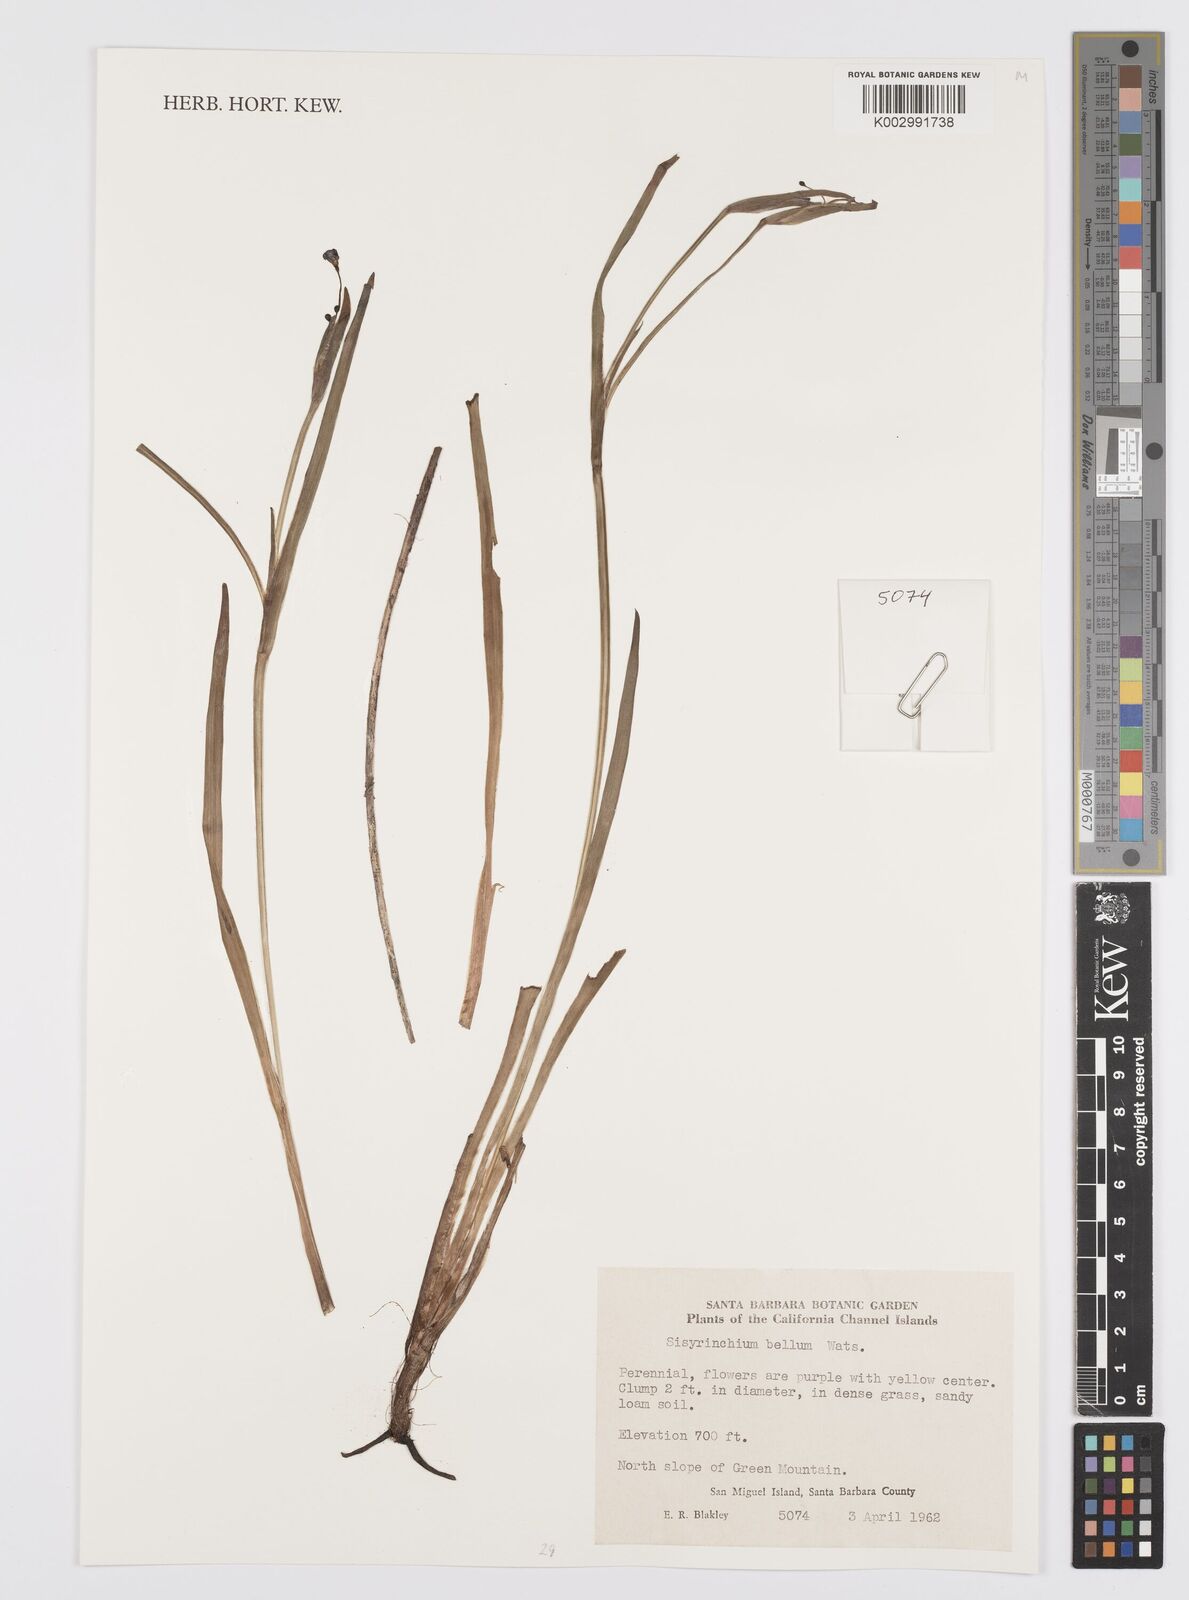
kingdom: Plantae
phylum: Tracheophyta
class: Liliopsida
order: Asparagales
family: Iridaceae
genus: Sisyrinchium
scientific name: Sisyrinchium bellum
